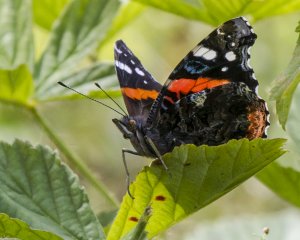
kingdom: Animalia
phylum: Arthropoda
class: Insecta
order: Lepidoptera
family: Nymphalidae
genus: Vanessa
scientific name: Vanessa atalanta
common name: Red Admiral
